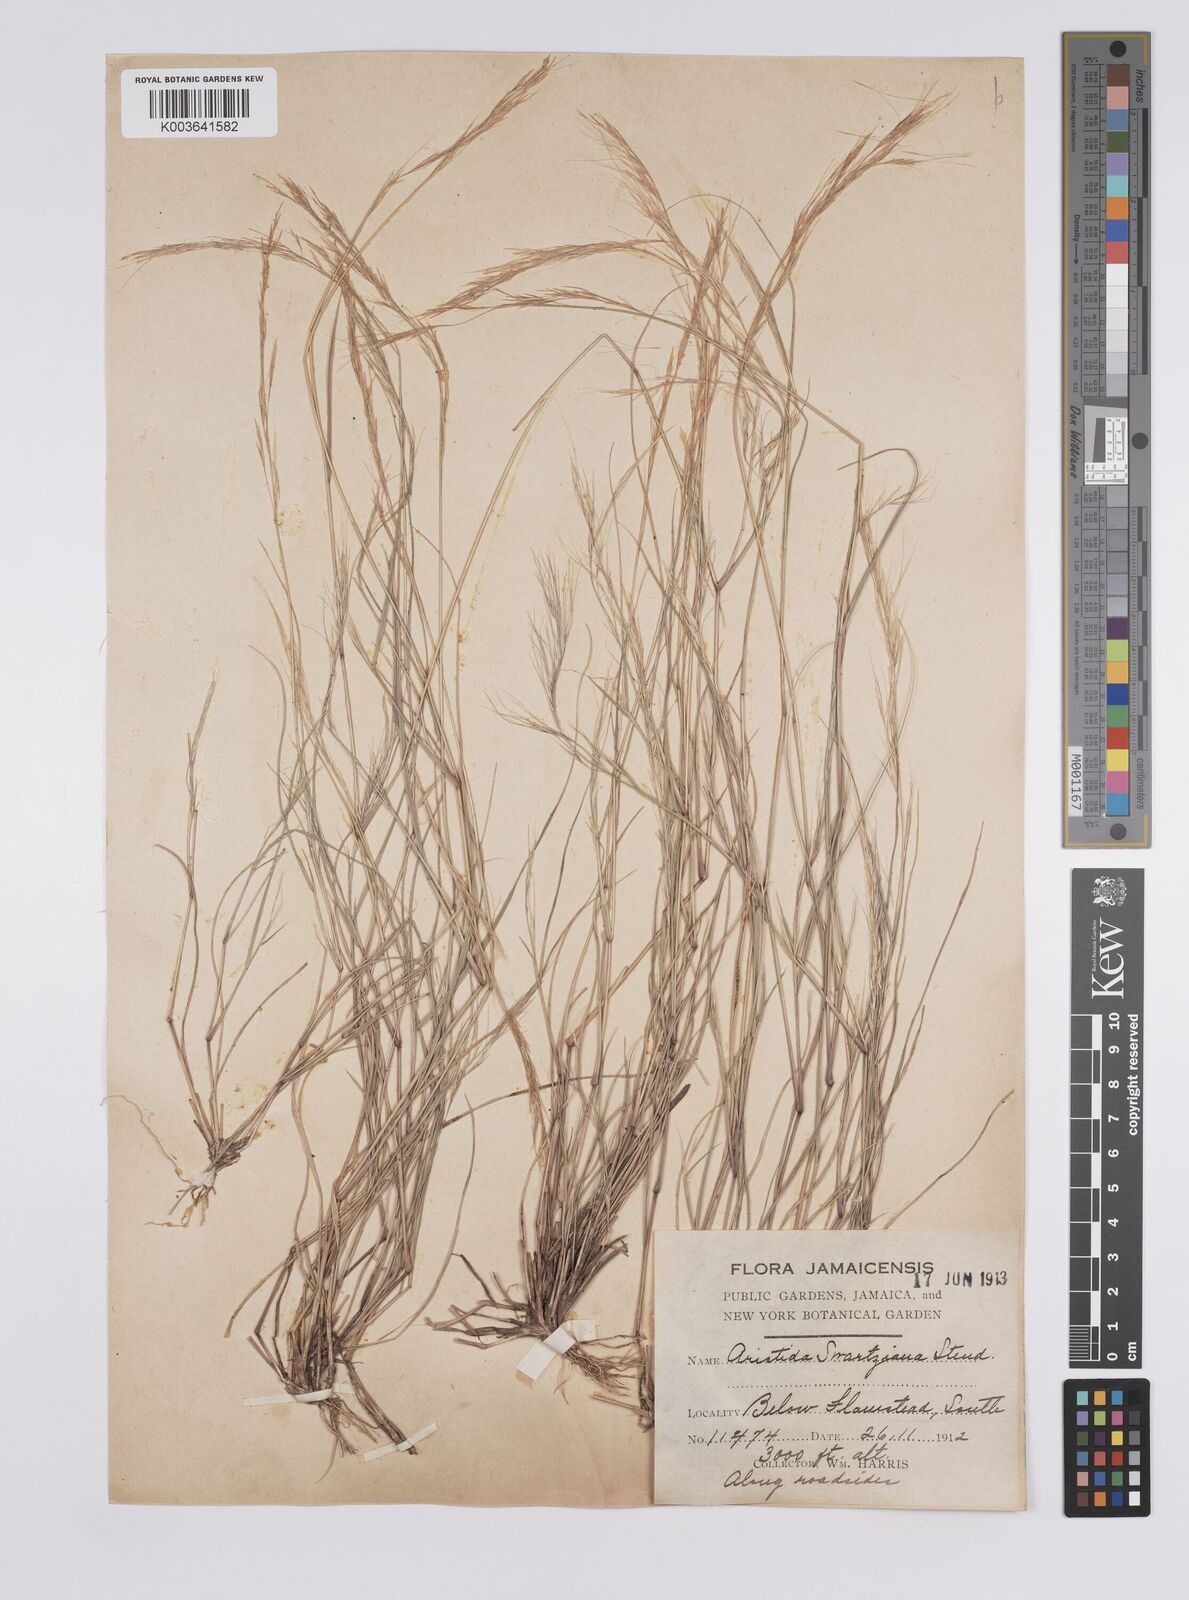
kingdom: Plantae
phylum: Tracheophyta
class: Liliopsida
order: Poales
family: Poaceae
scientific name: Poaceae
